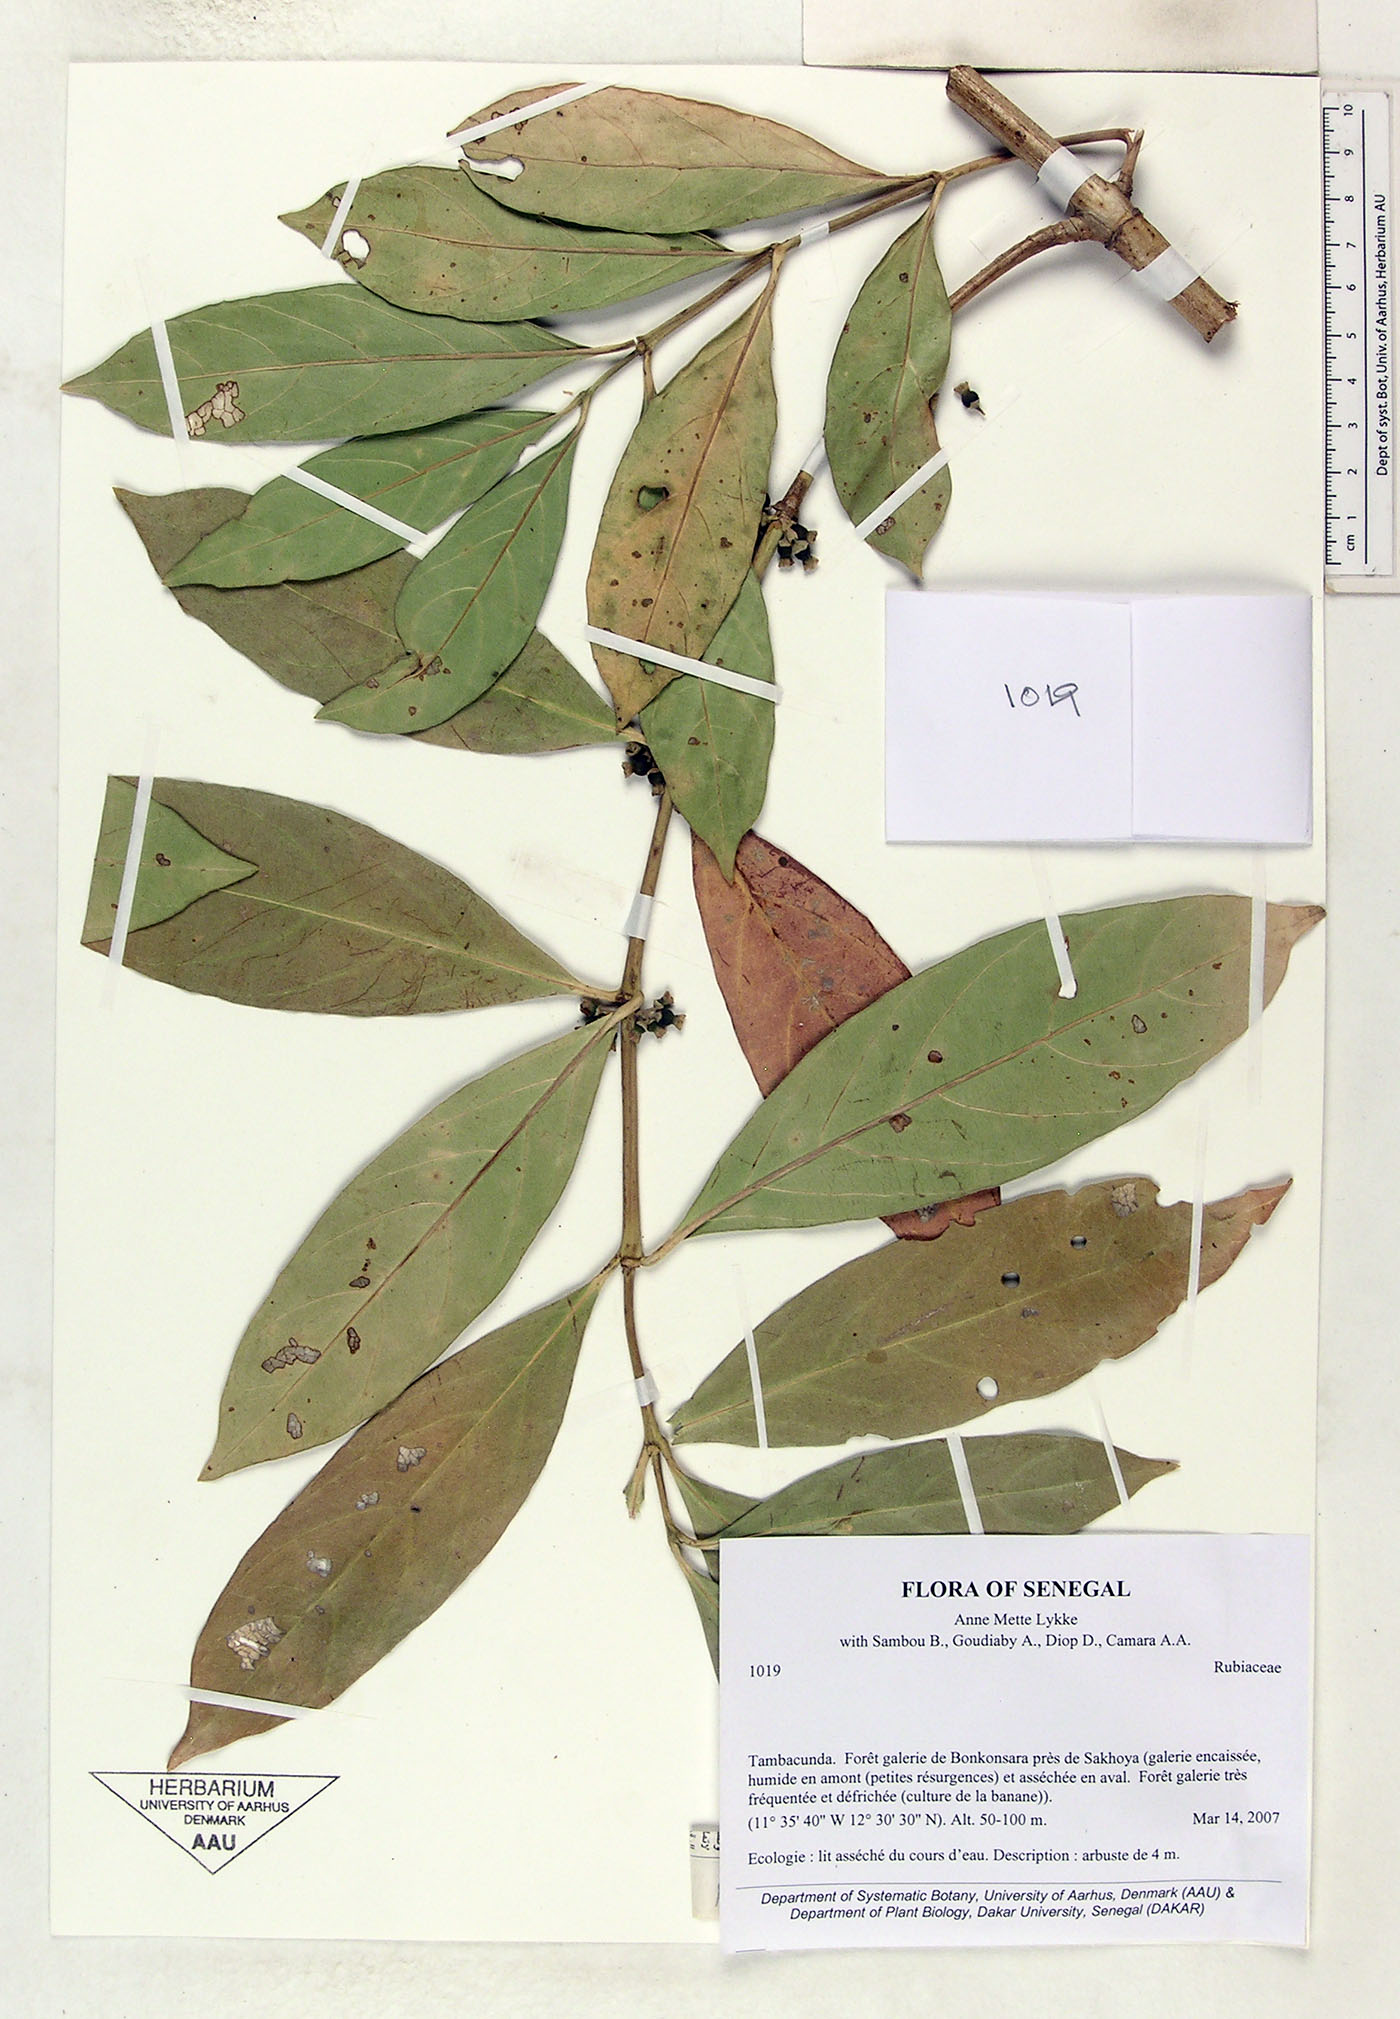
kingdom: Plantae
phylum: Tracheophyta
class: Magnoliopsida
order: Gentianales
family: Rubiaceae
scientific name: Rubiaceae
